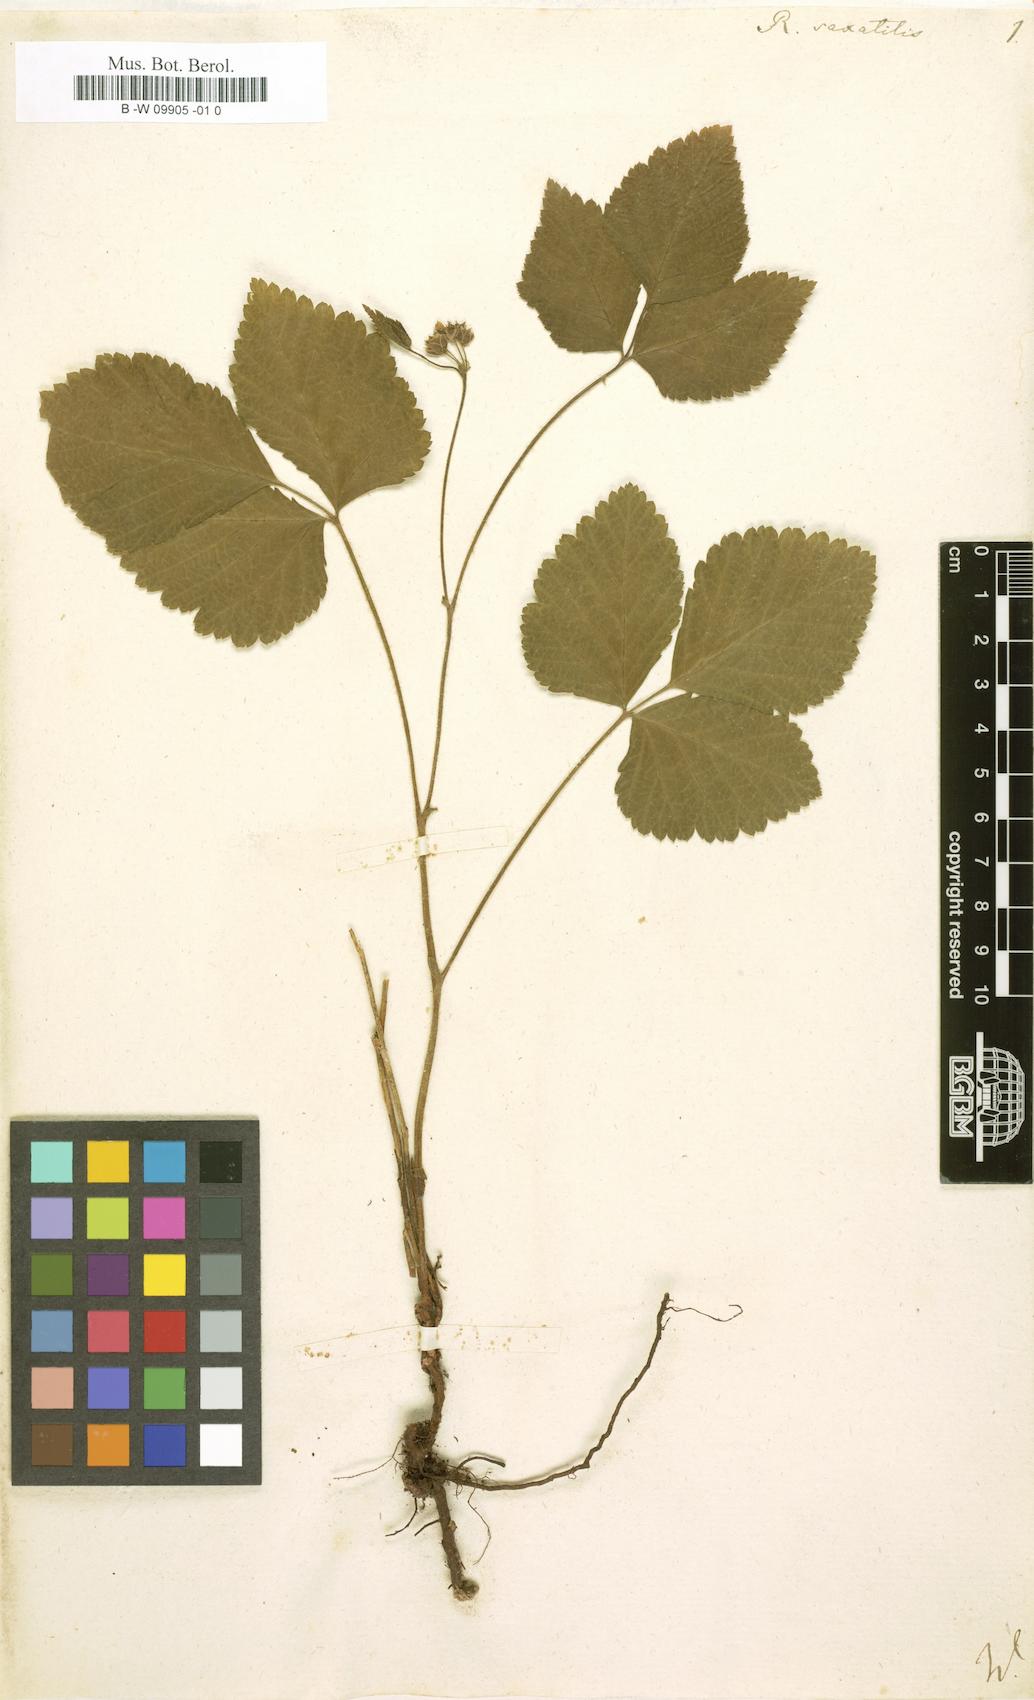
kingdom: Plantae
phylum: Tracheophyta
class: Magnoliopsida
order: Rosales
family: Rosaceae
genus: Rubus
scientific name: Rubus saxatilis
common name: Stone bramble
